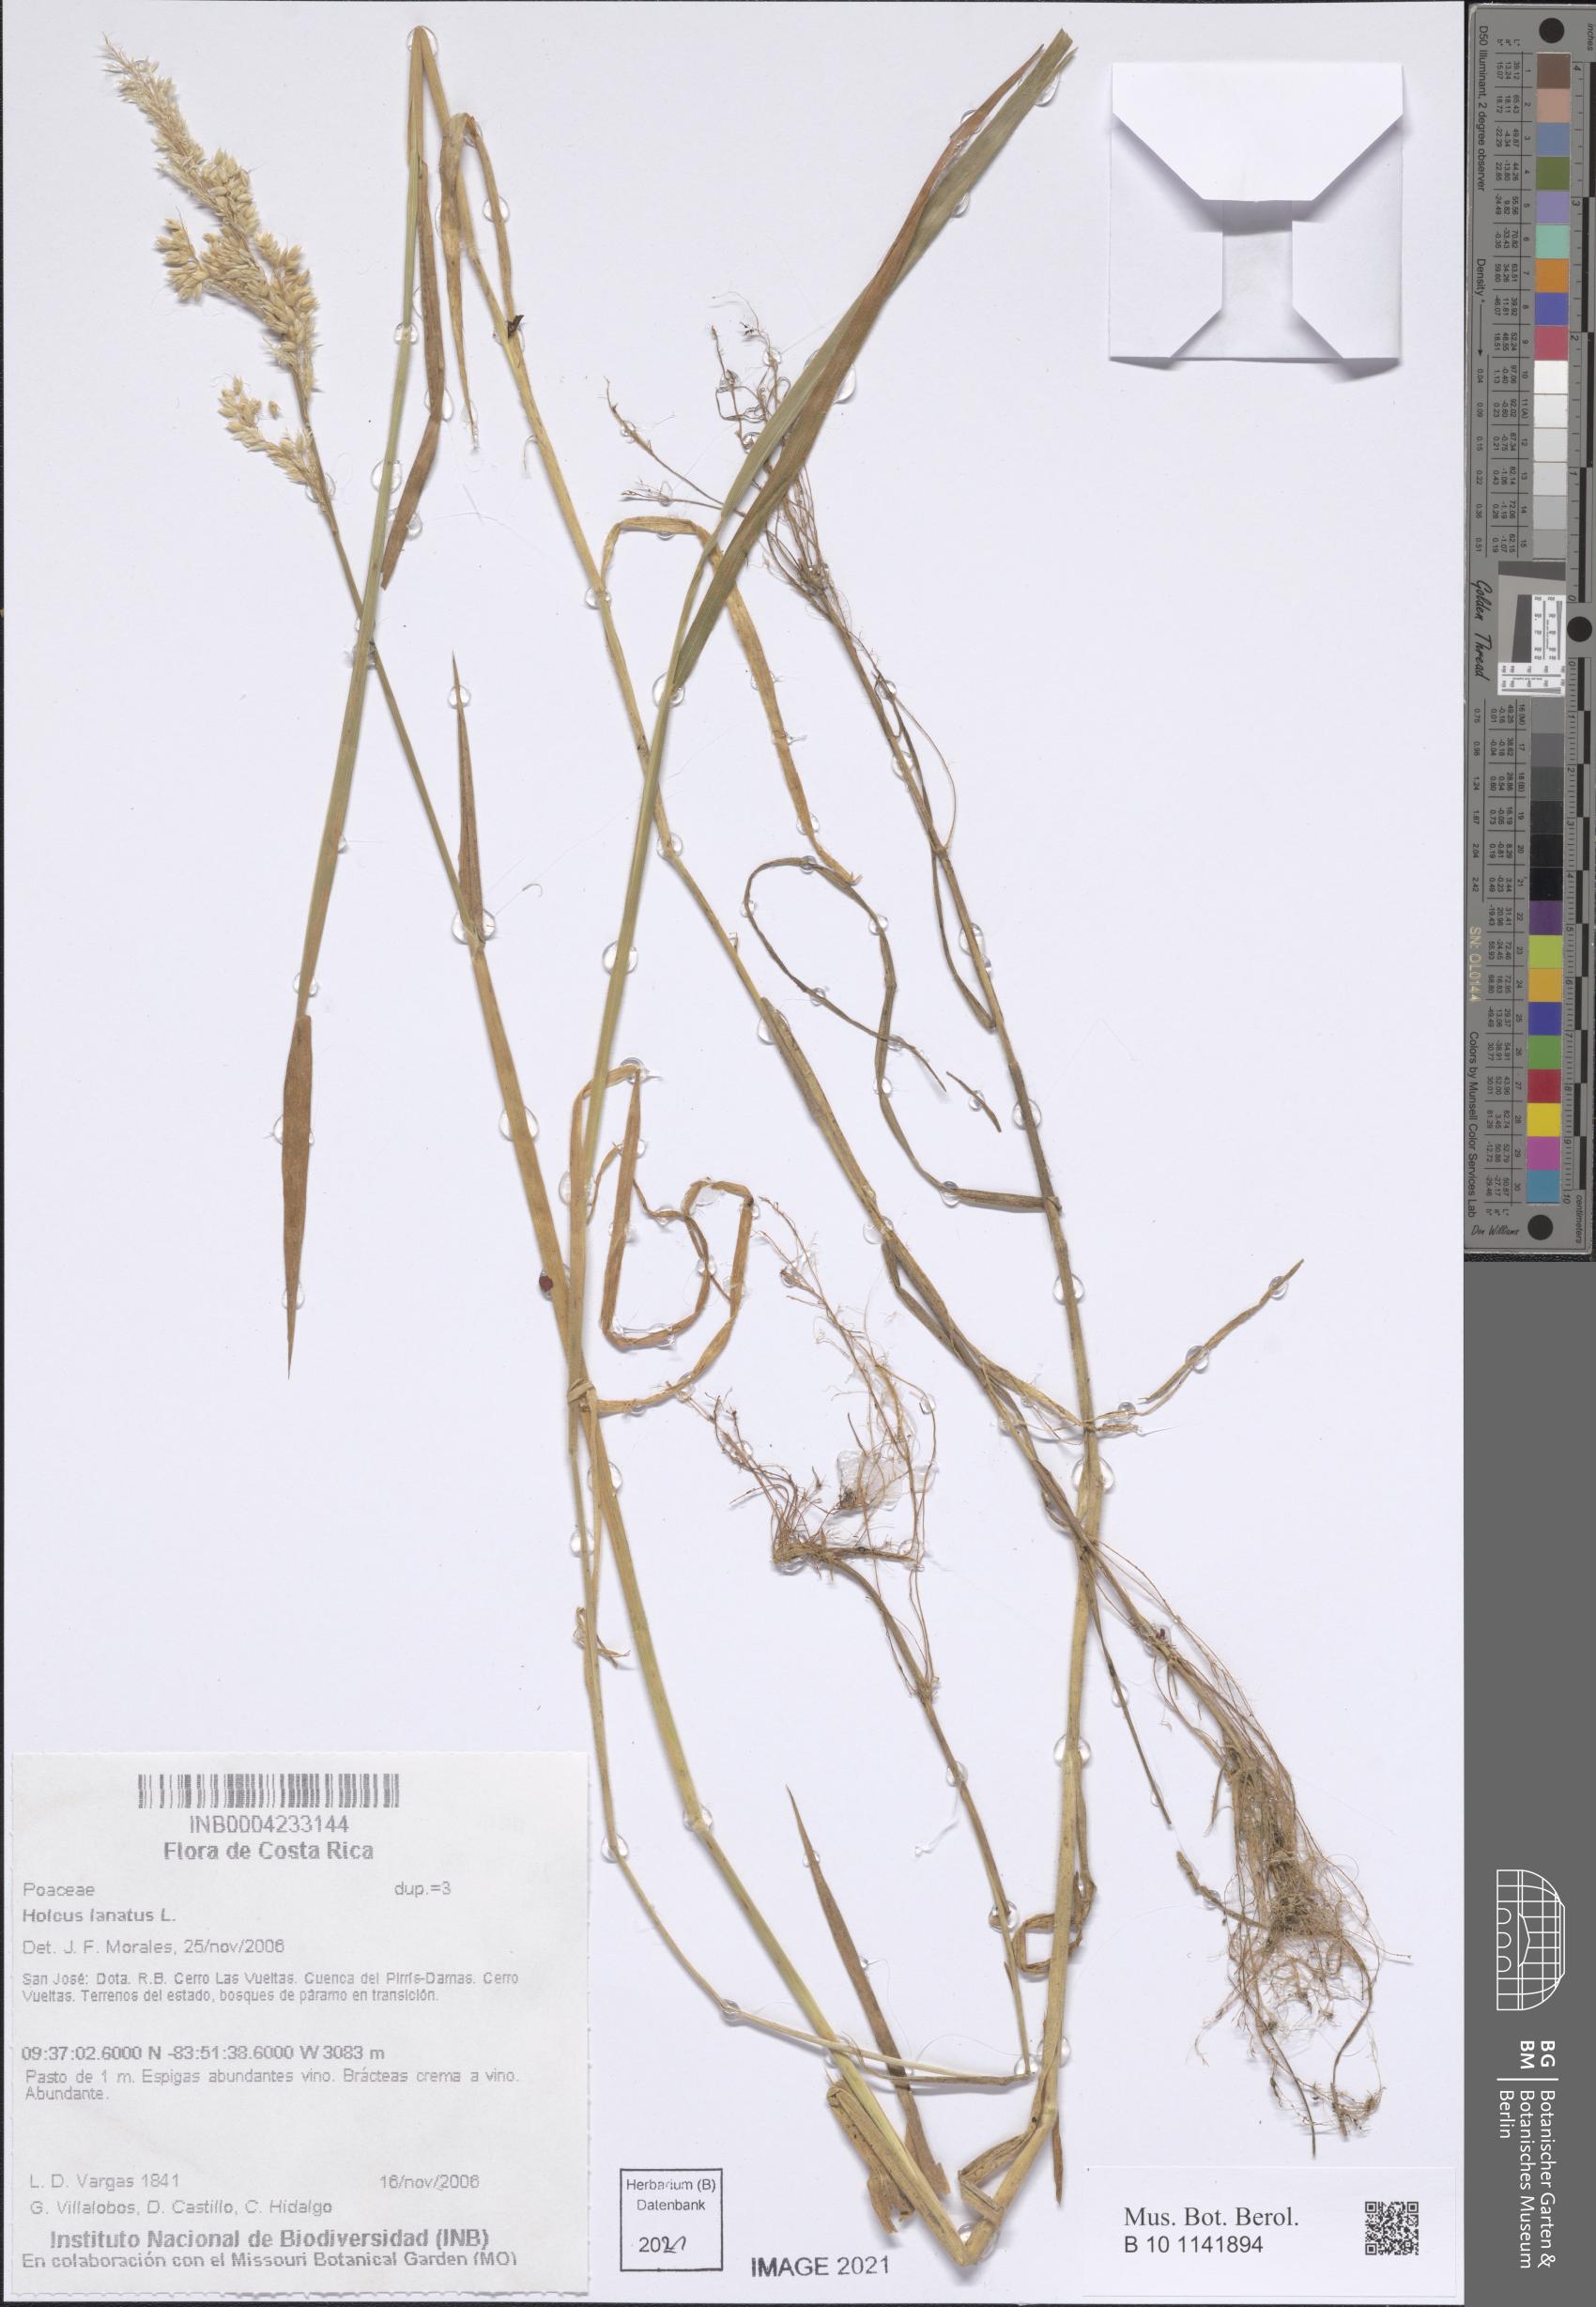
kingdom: Plantae
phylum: Tracheophyta
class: Liliopsida
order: Poales
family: Poaceae
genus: Holcus
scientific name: Holcus lanatus
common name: Yorkshire-fog
